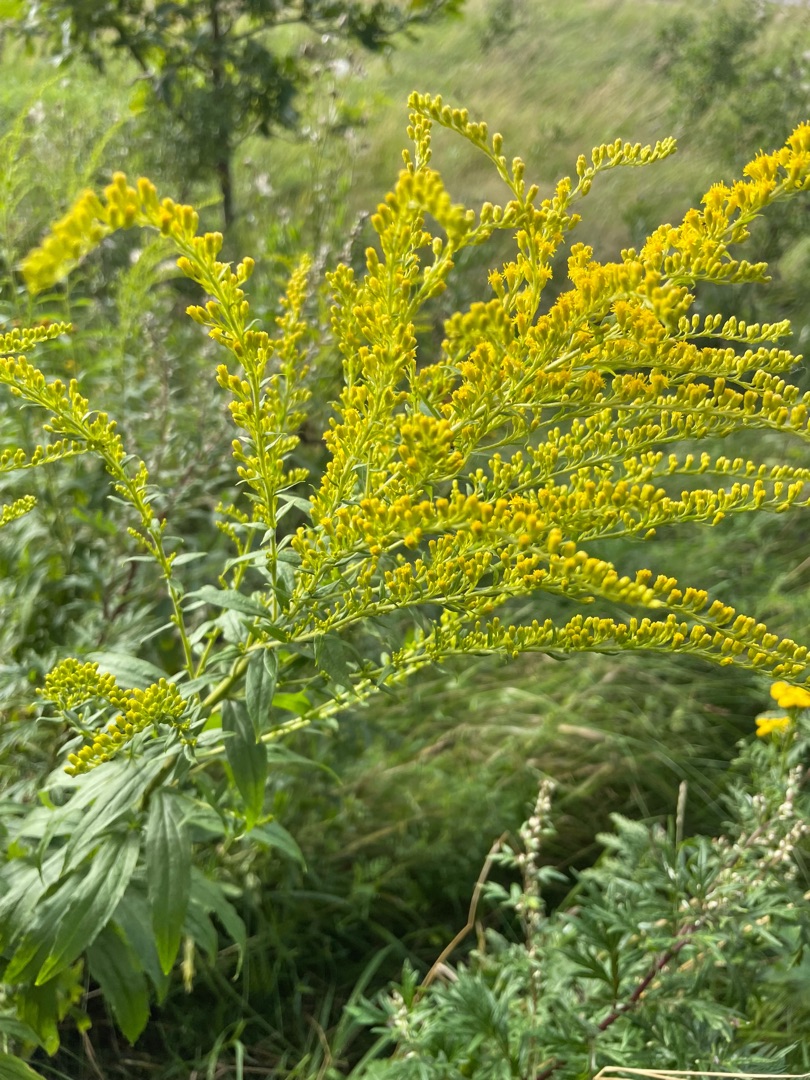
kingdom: Plantae
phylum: Tracheophyta
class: Magnoliopsida
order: Asterales
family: Asteraceae
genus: Solidago
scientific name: Solidago gigantea
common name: Sildig gyldenris
